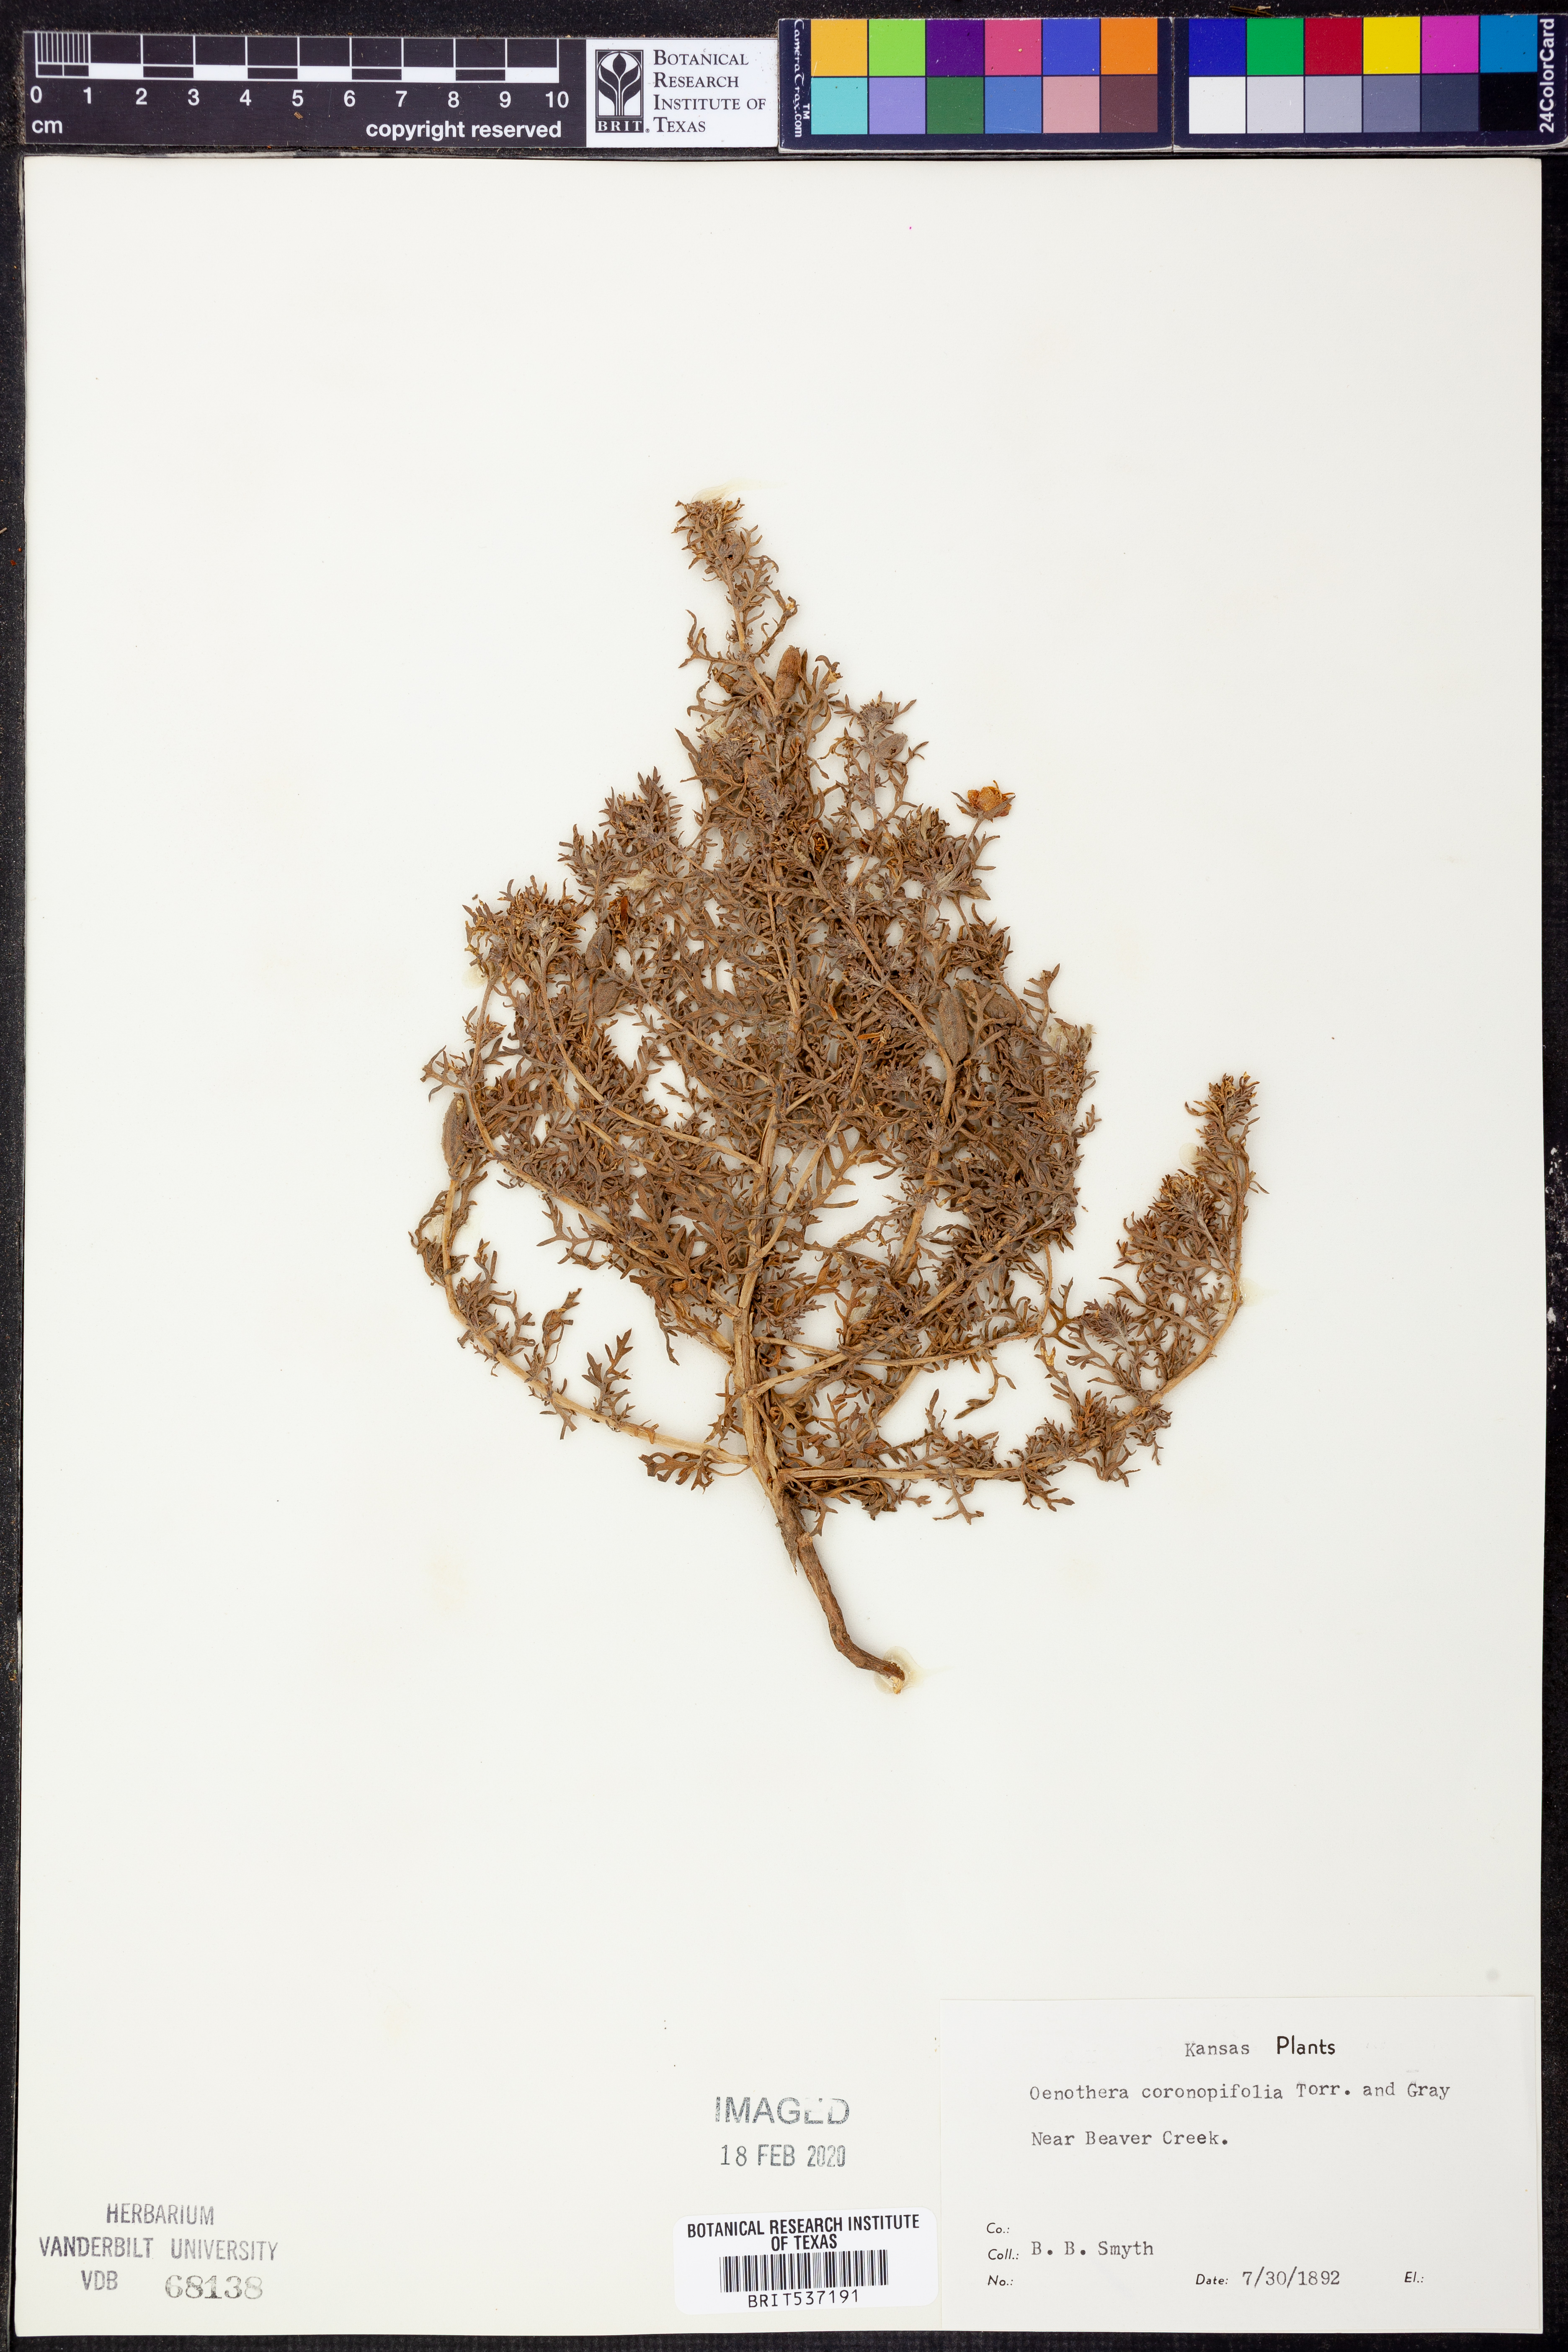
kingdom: Plantae
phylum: Tracheophyta
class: Magnoliopsida
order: Myrtales
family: Onagraceae
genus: Oenothera
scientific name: Oenothera coronopifolia
